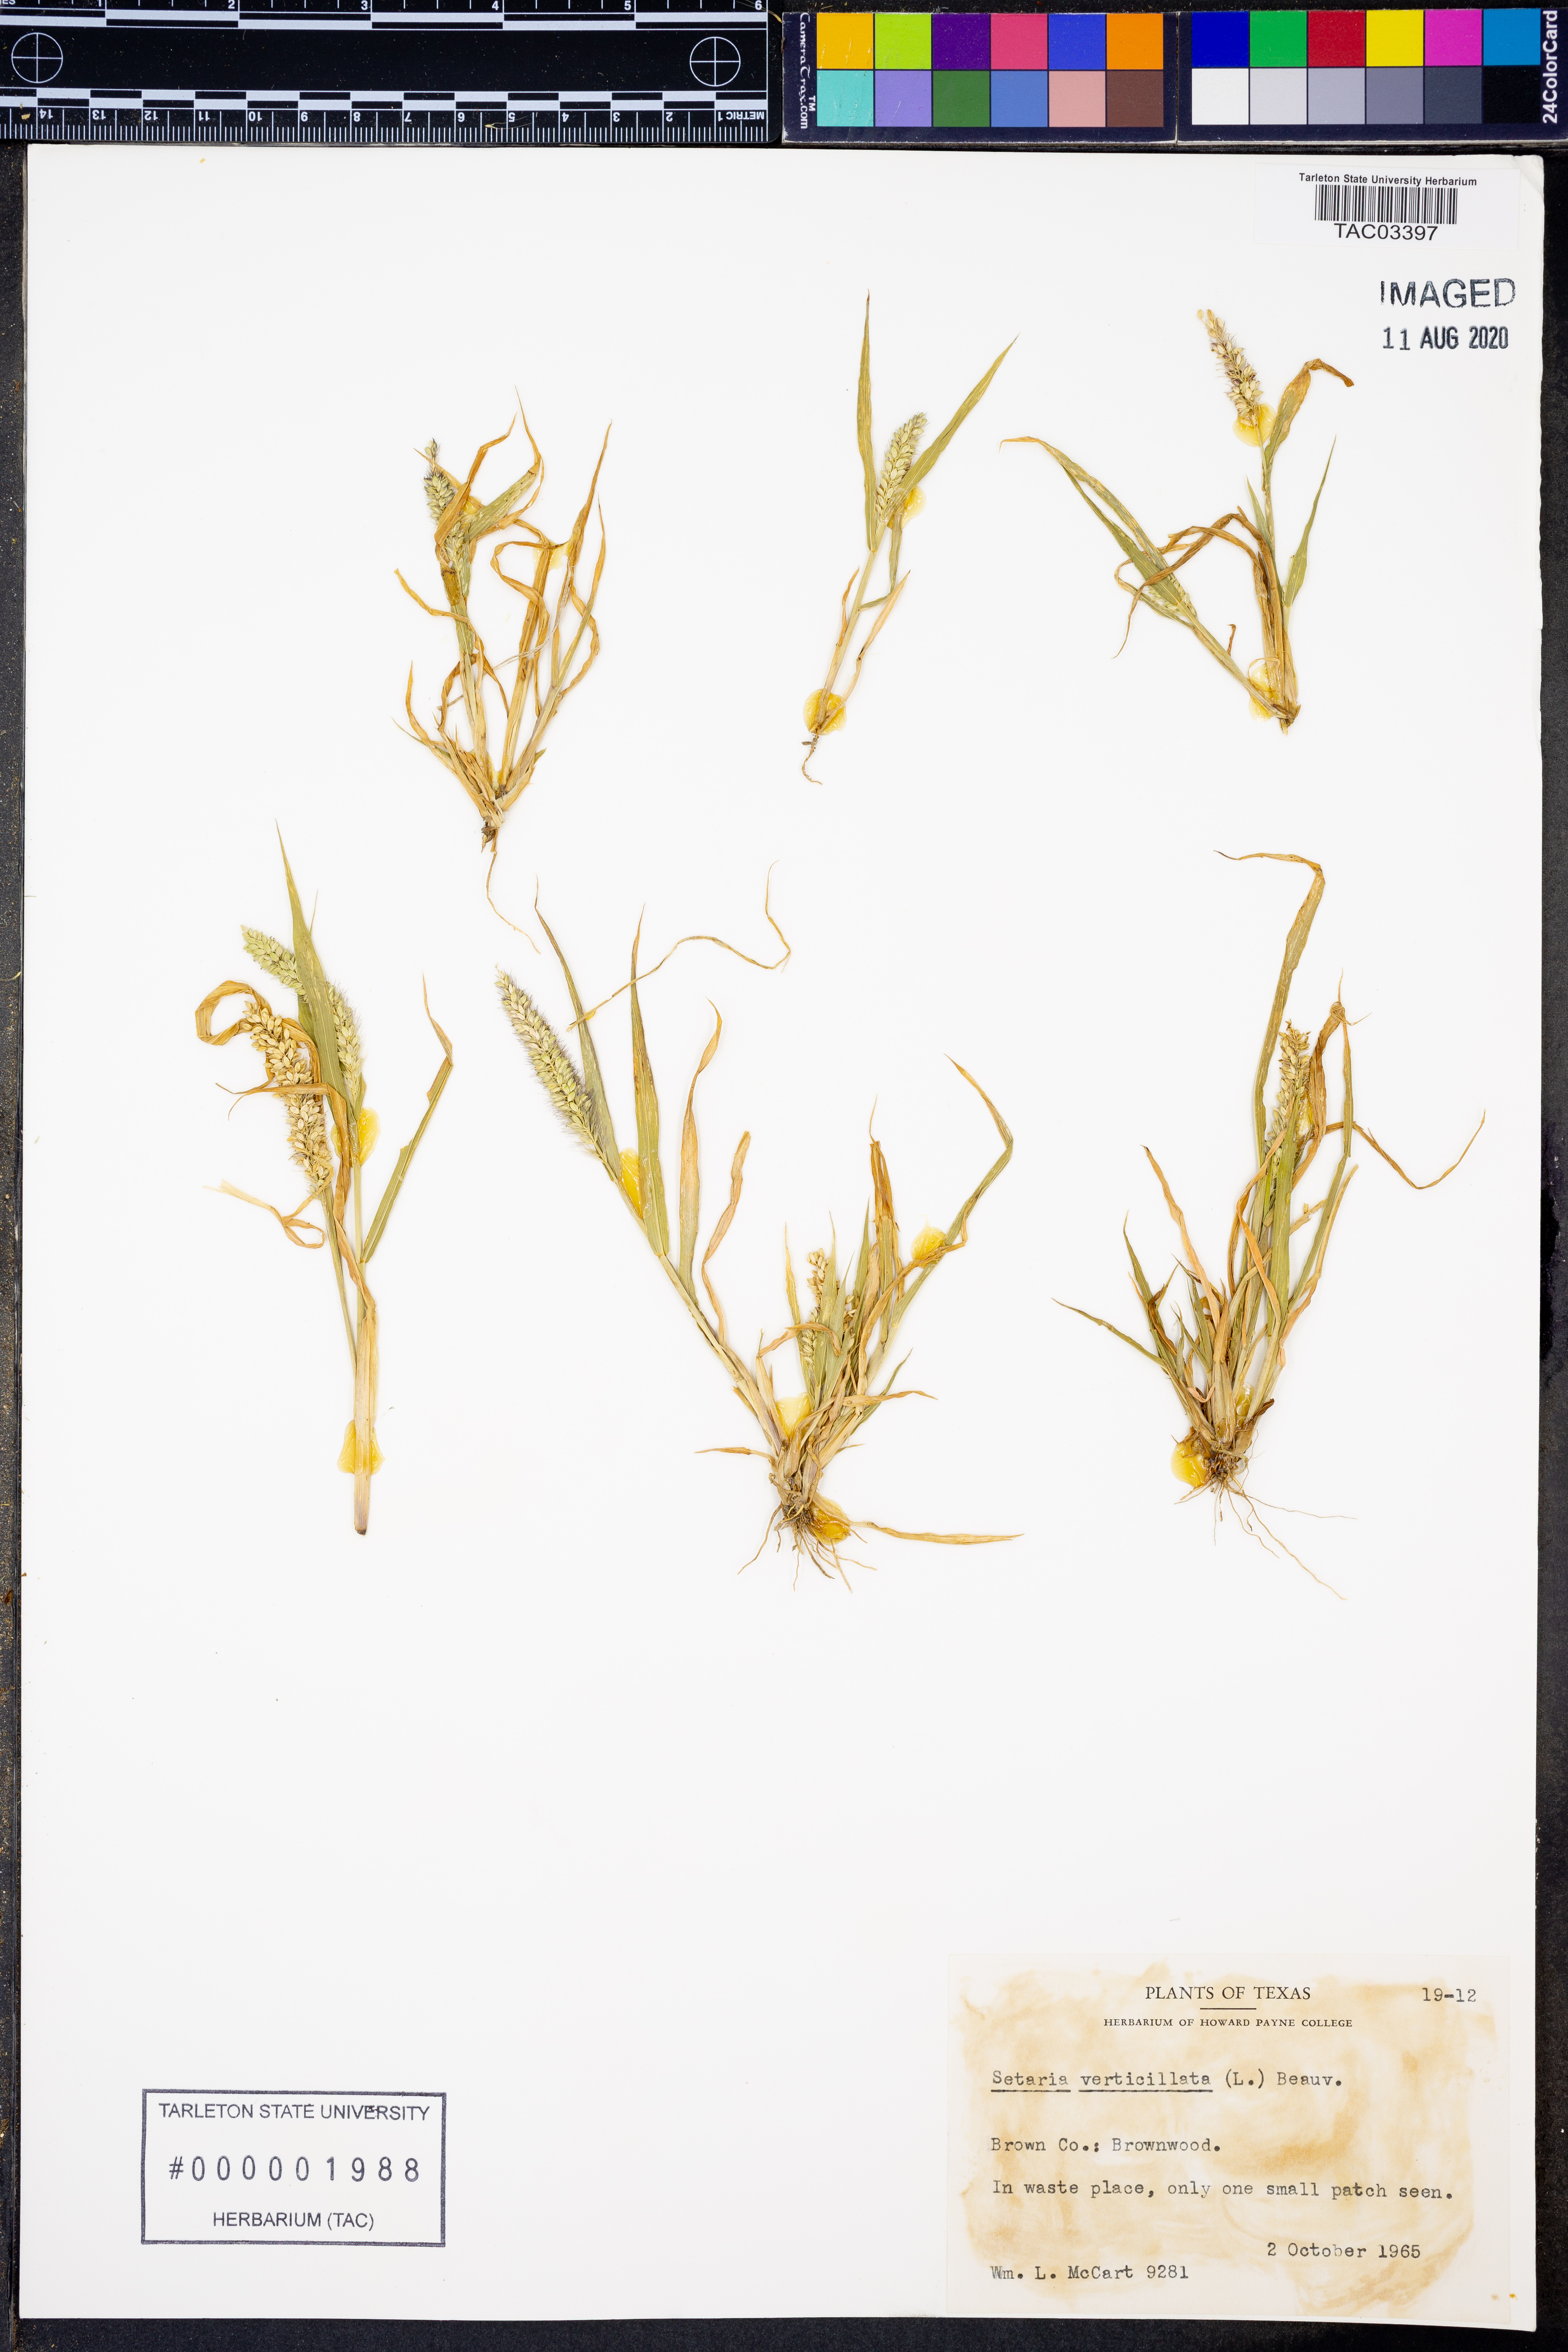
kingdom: Plantae
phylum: Tracheophyta
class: Liliopsida
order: Poales
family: Poaceae
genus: Setaria
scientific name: Setaria verticillata
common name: Hooked bristlegrass
